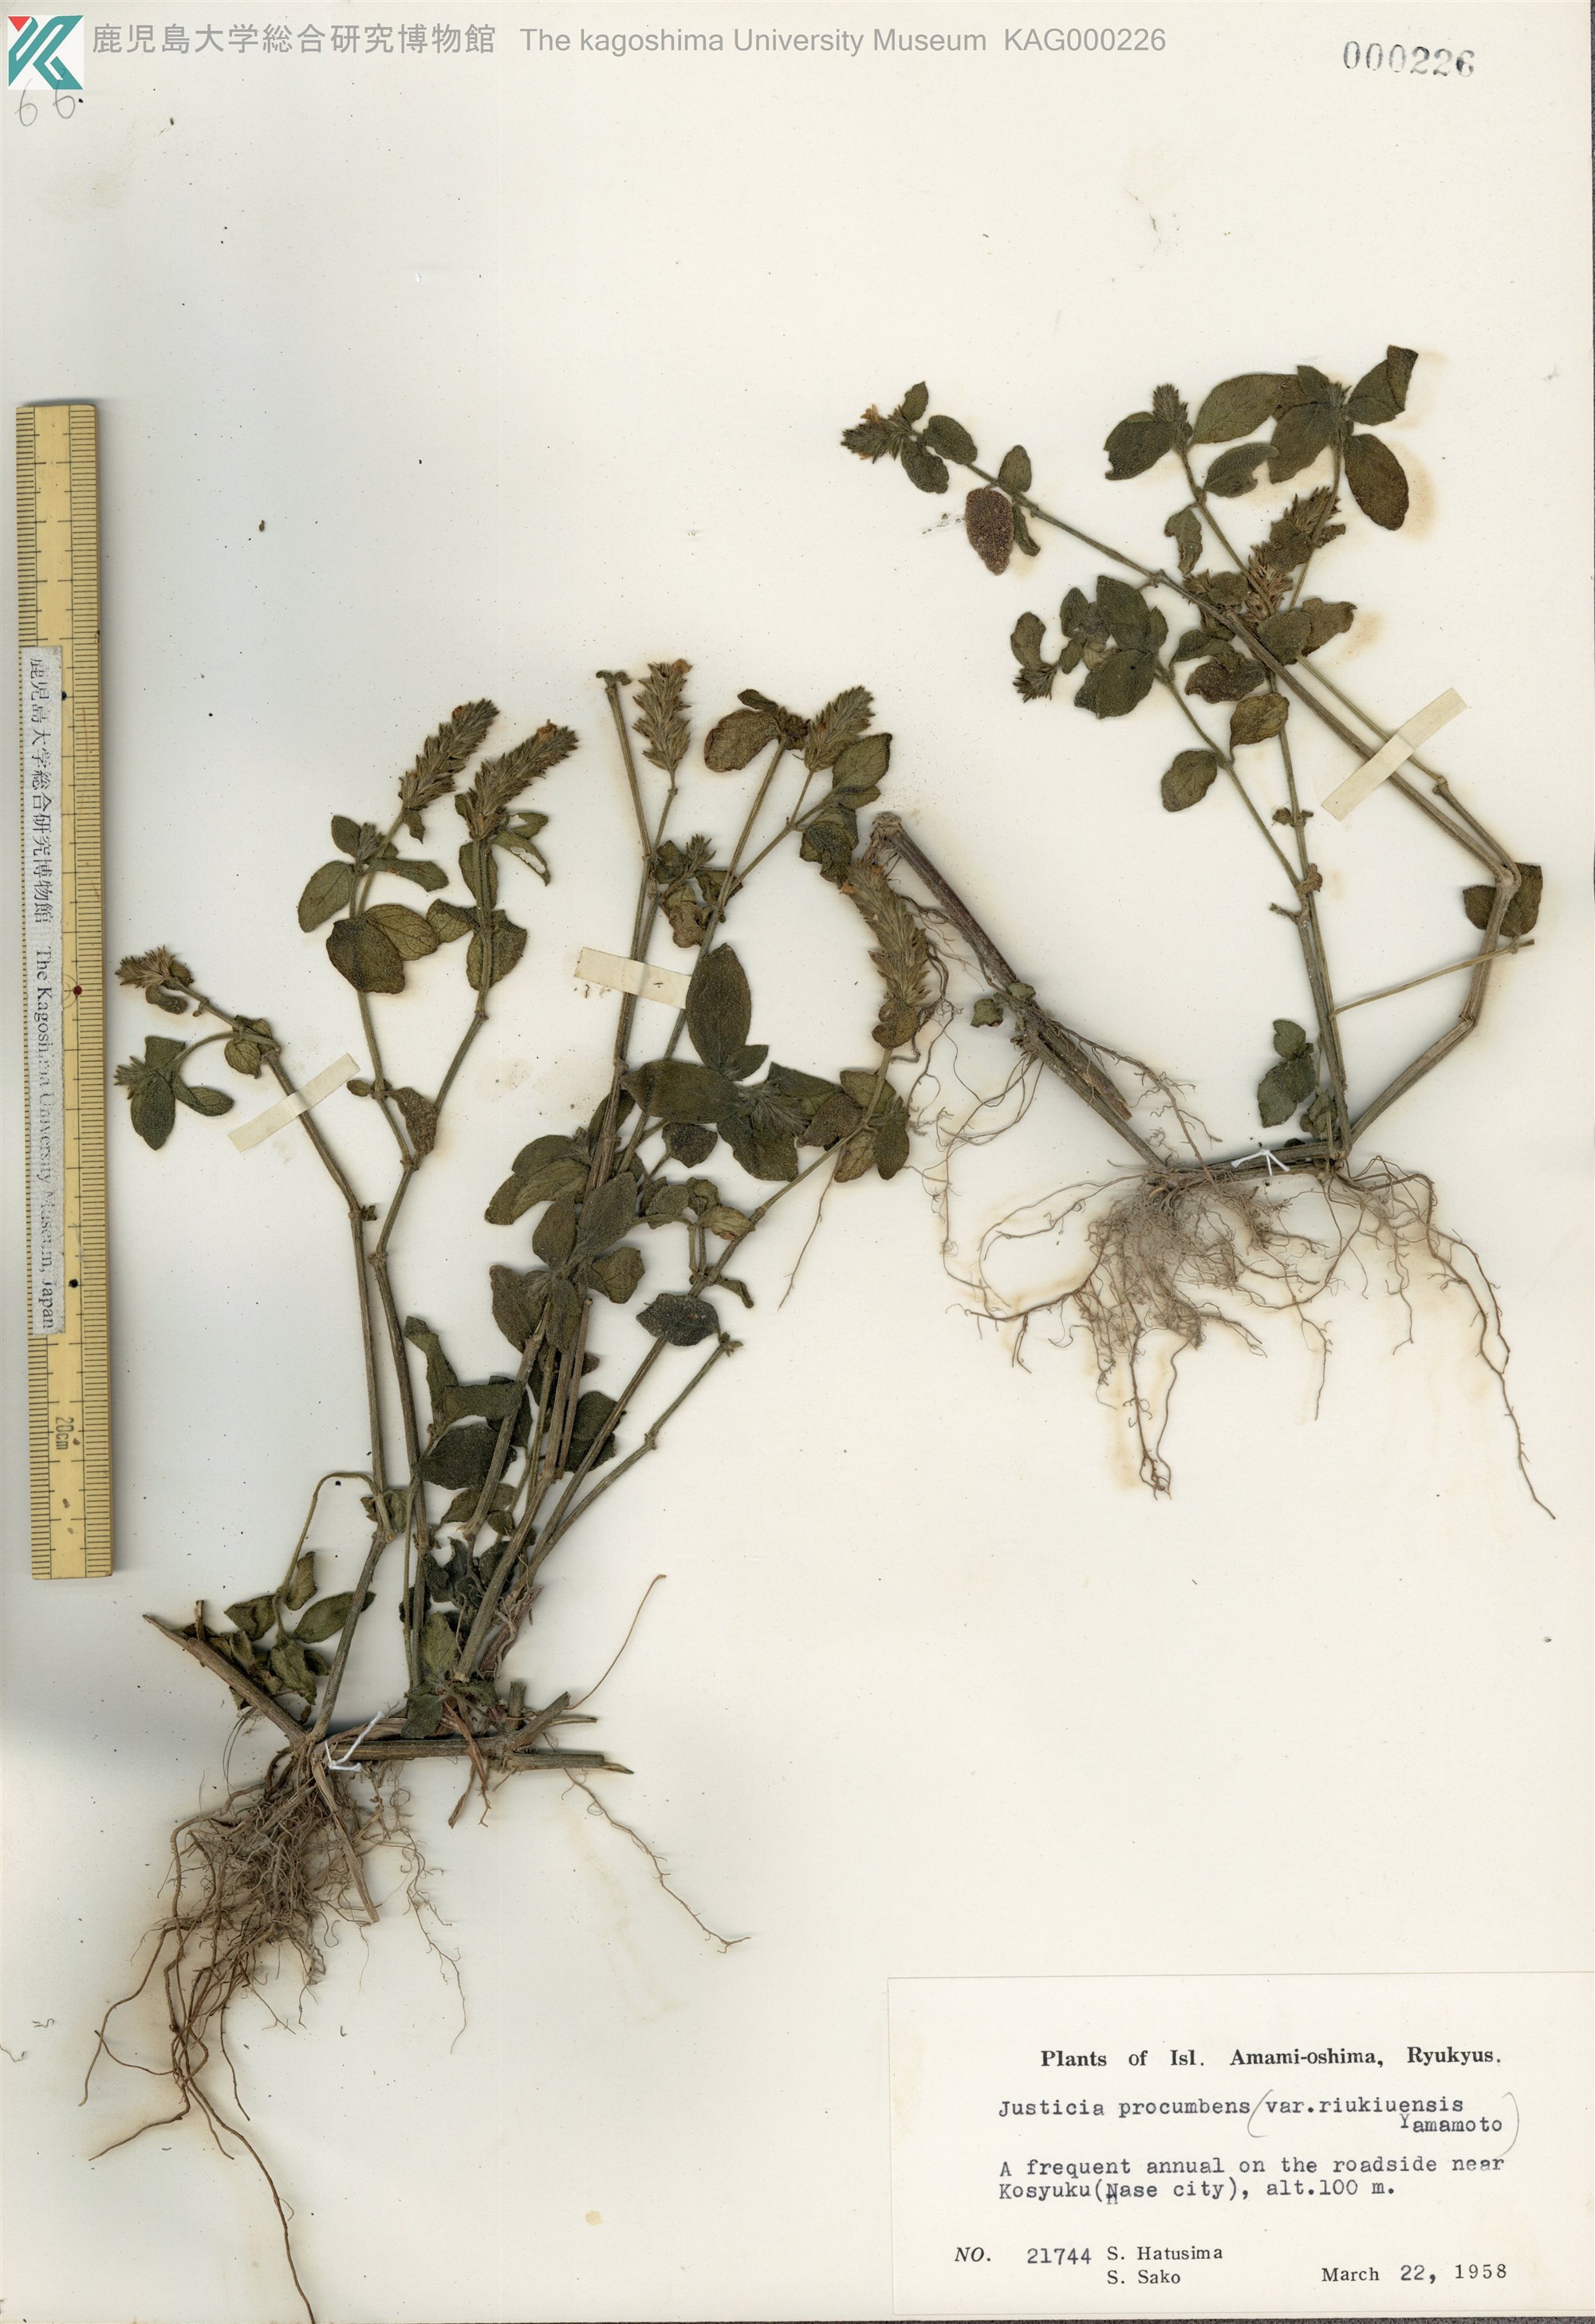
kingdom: Plantae
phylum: Tracheophyta
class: Magnoliopsida
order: Lamiales
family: Acanthaceae
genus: Rostellularia
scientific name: Rostellularia procumbens
